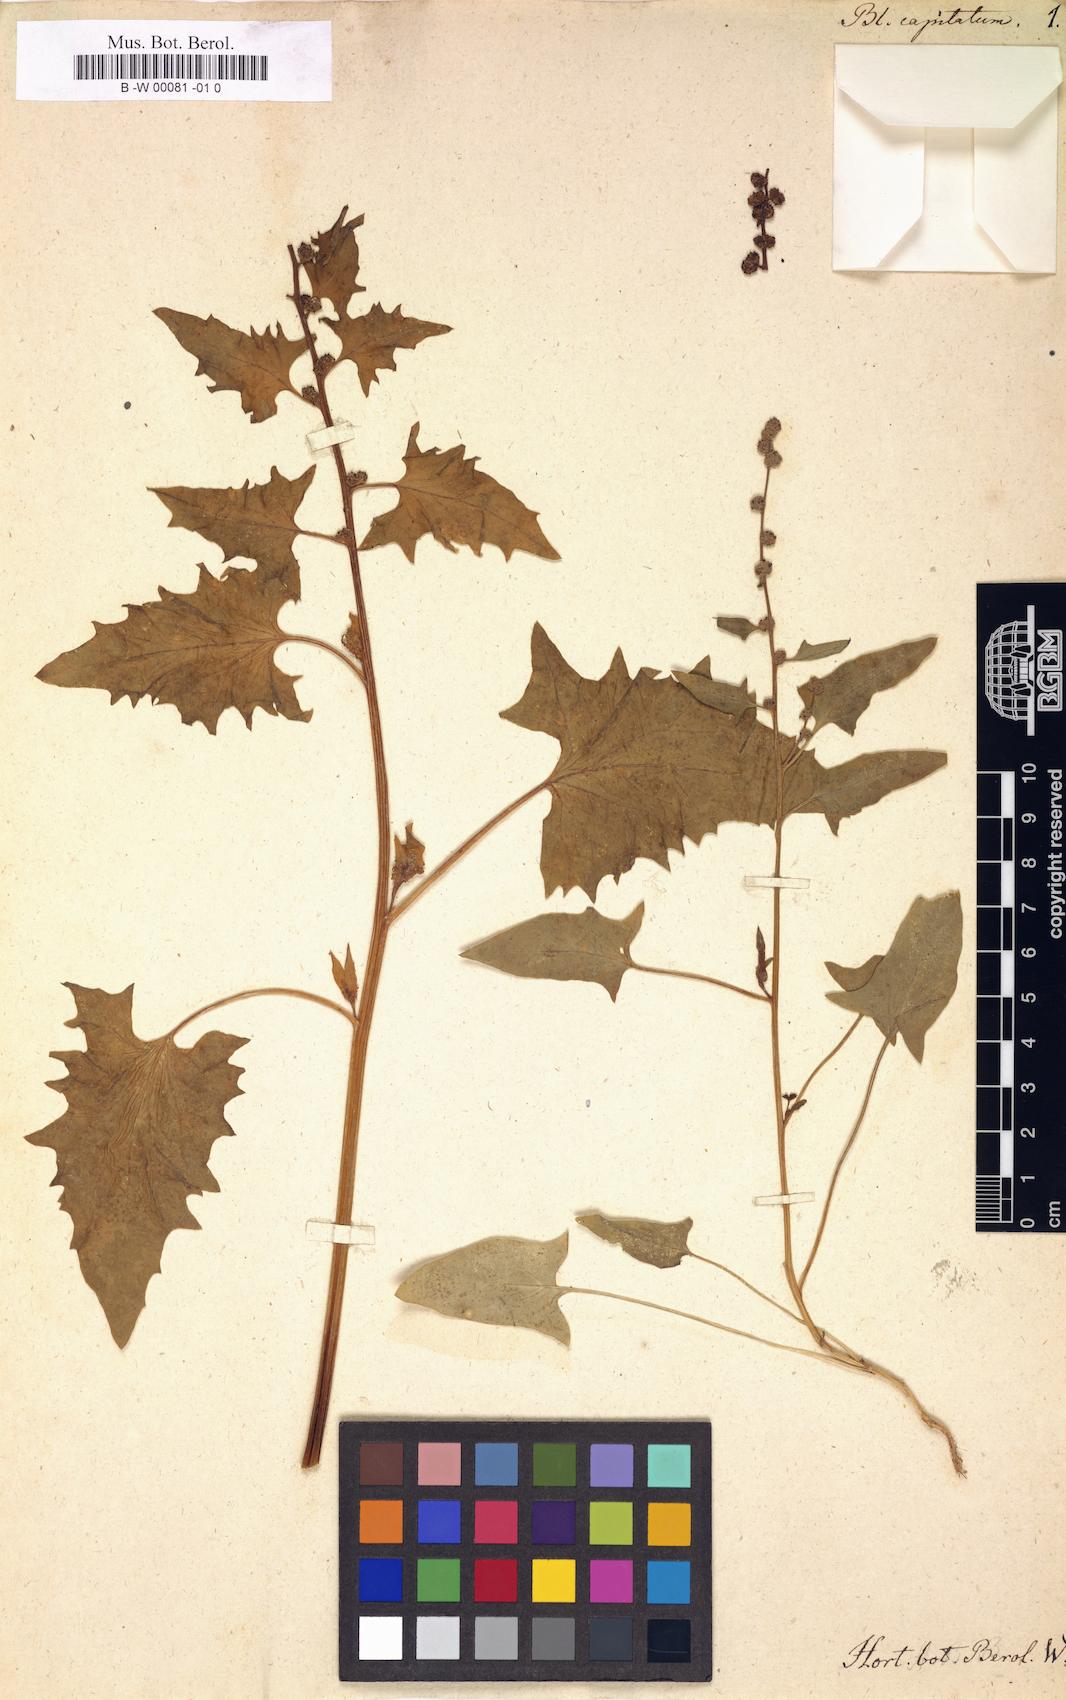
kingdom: Plantae
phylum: Tracheophyta
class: Magnoliopsida
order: Caryophyllales
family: Amaranthaceae
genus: Blitum
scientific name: Blitum capitatum
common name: Strawberry-blight
